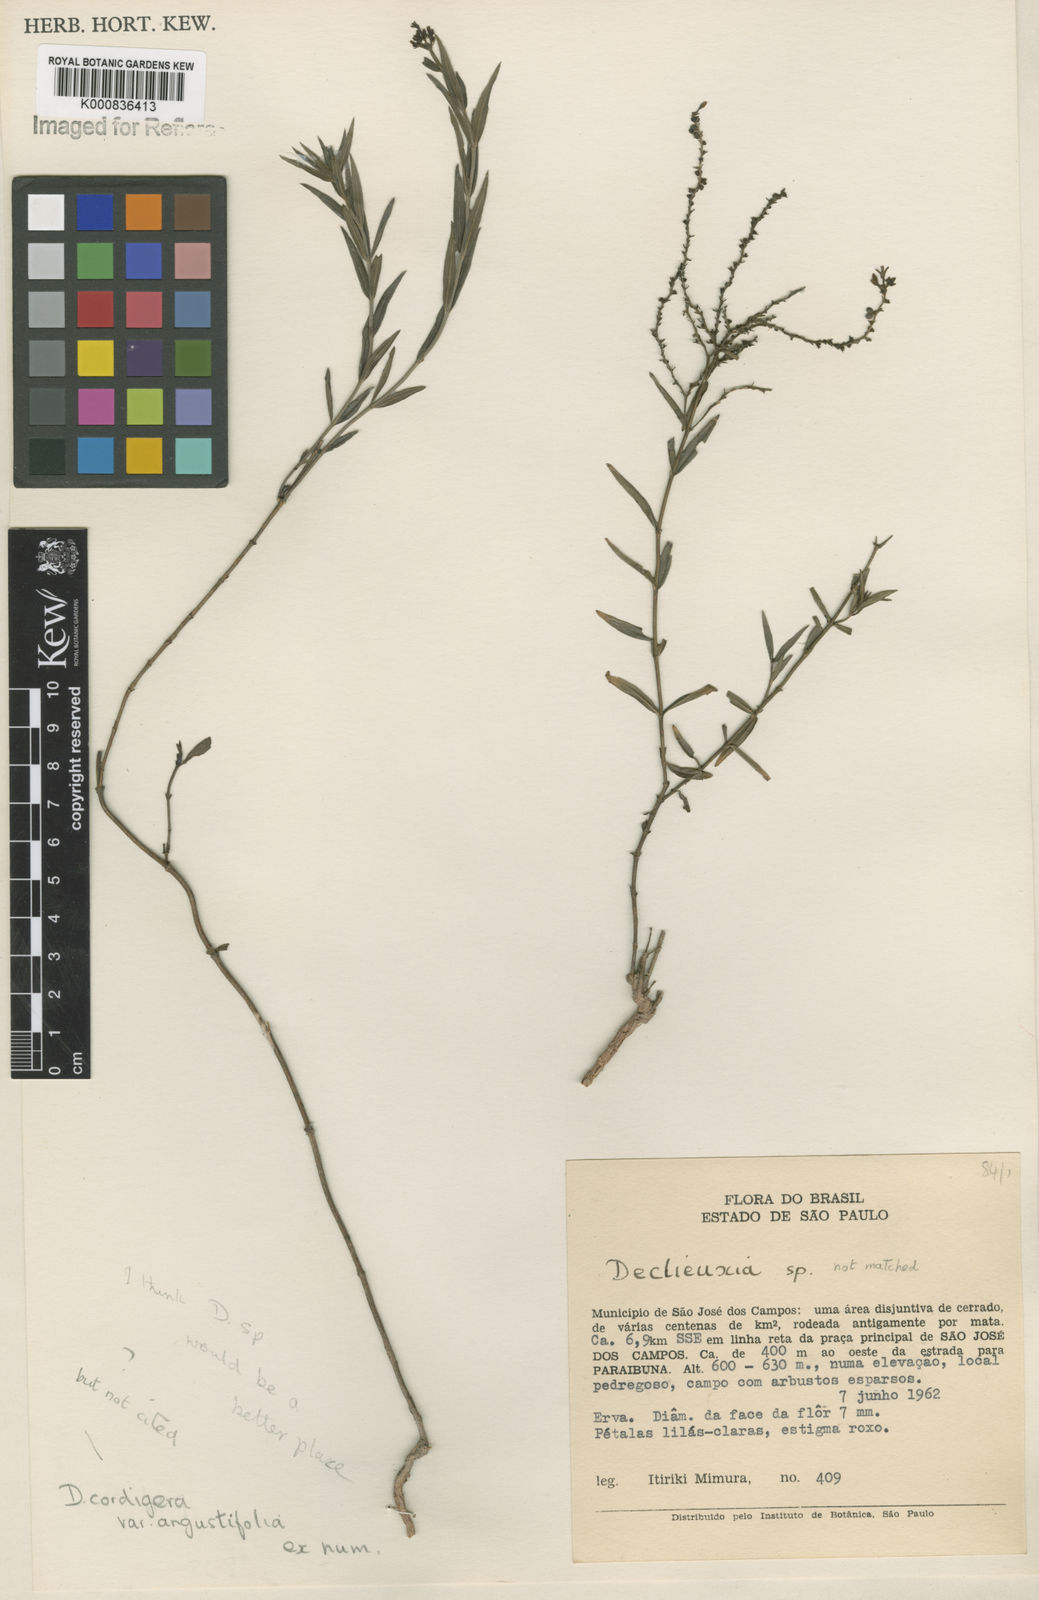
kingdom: Plantae
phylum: Tracheophyta
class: Magnoliopsida
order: Gentianales
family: Rubiaceae
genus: Declieuxia
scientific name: Declieuxia
